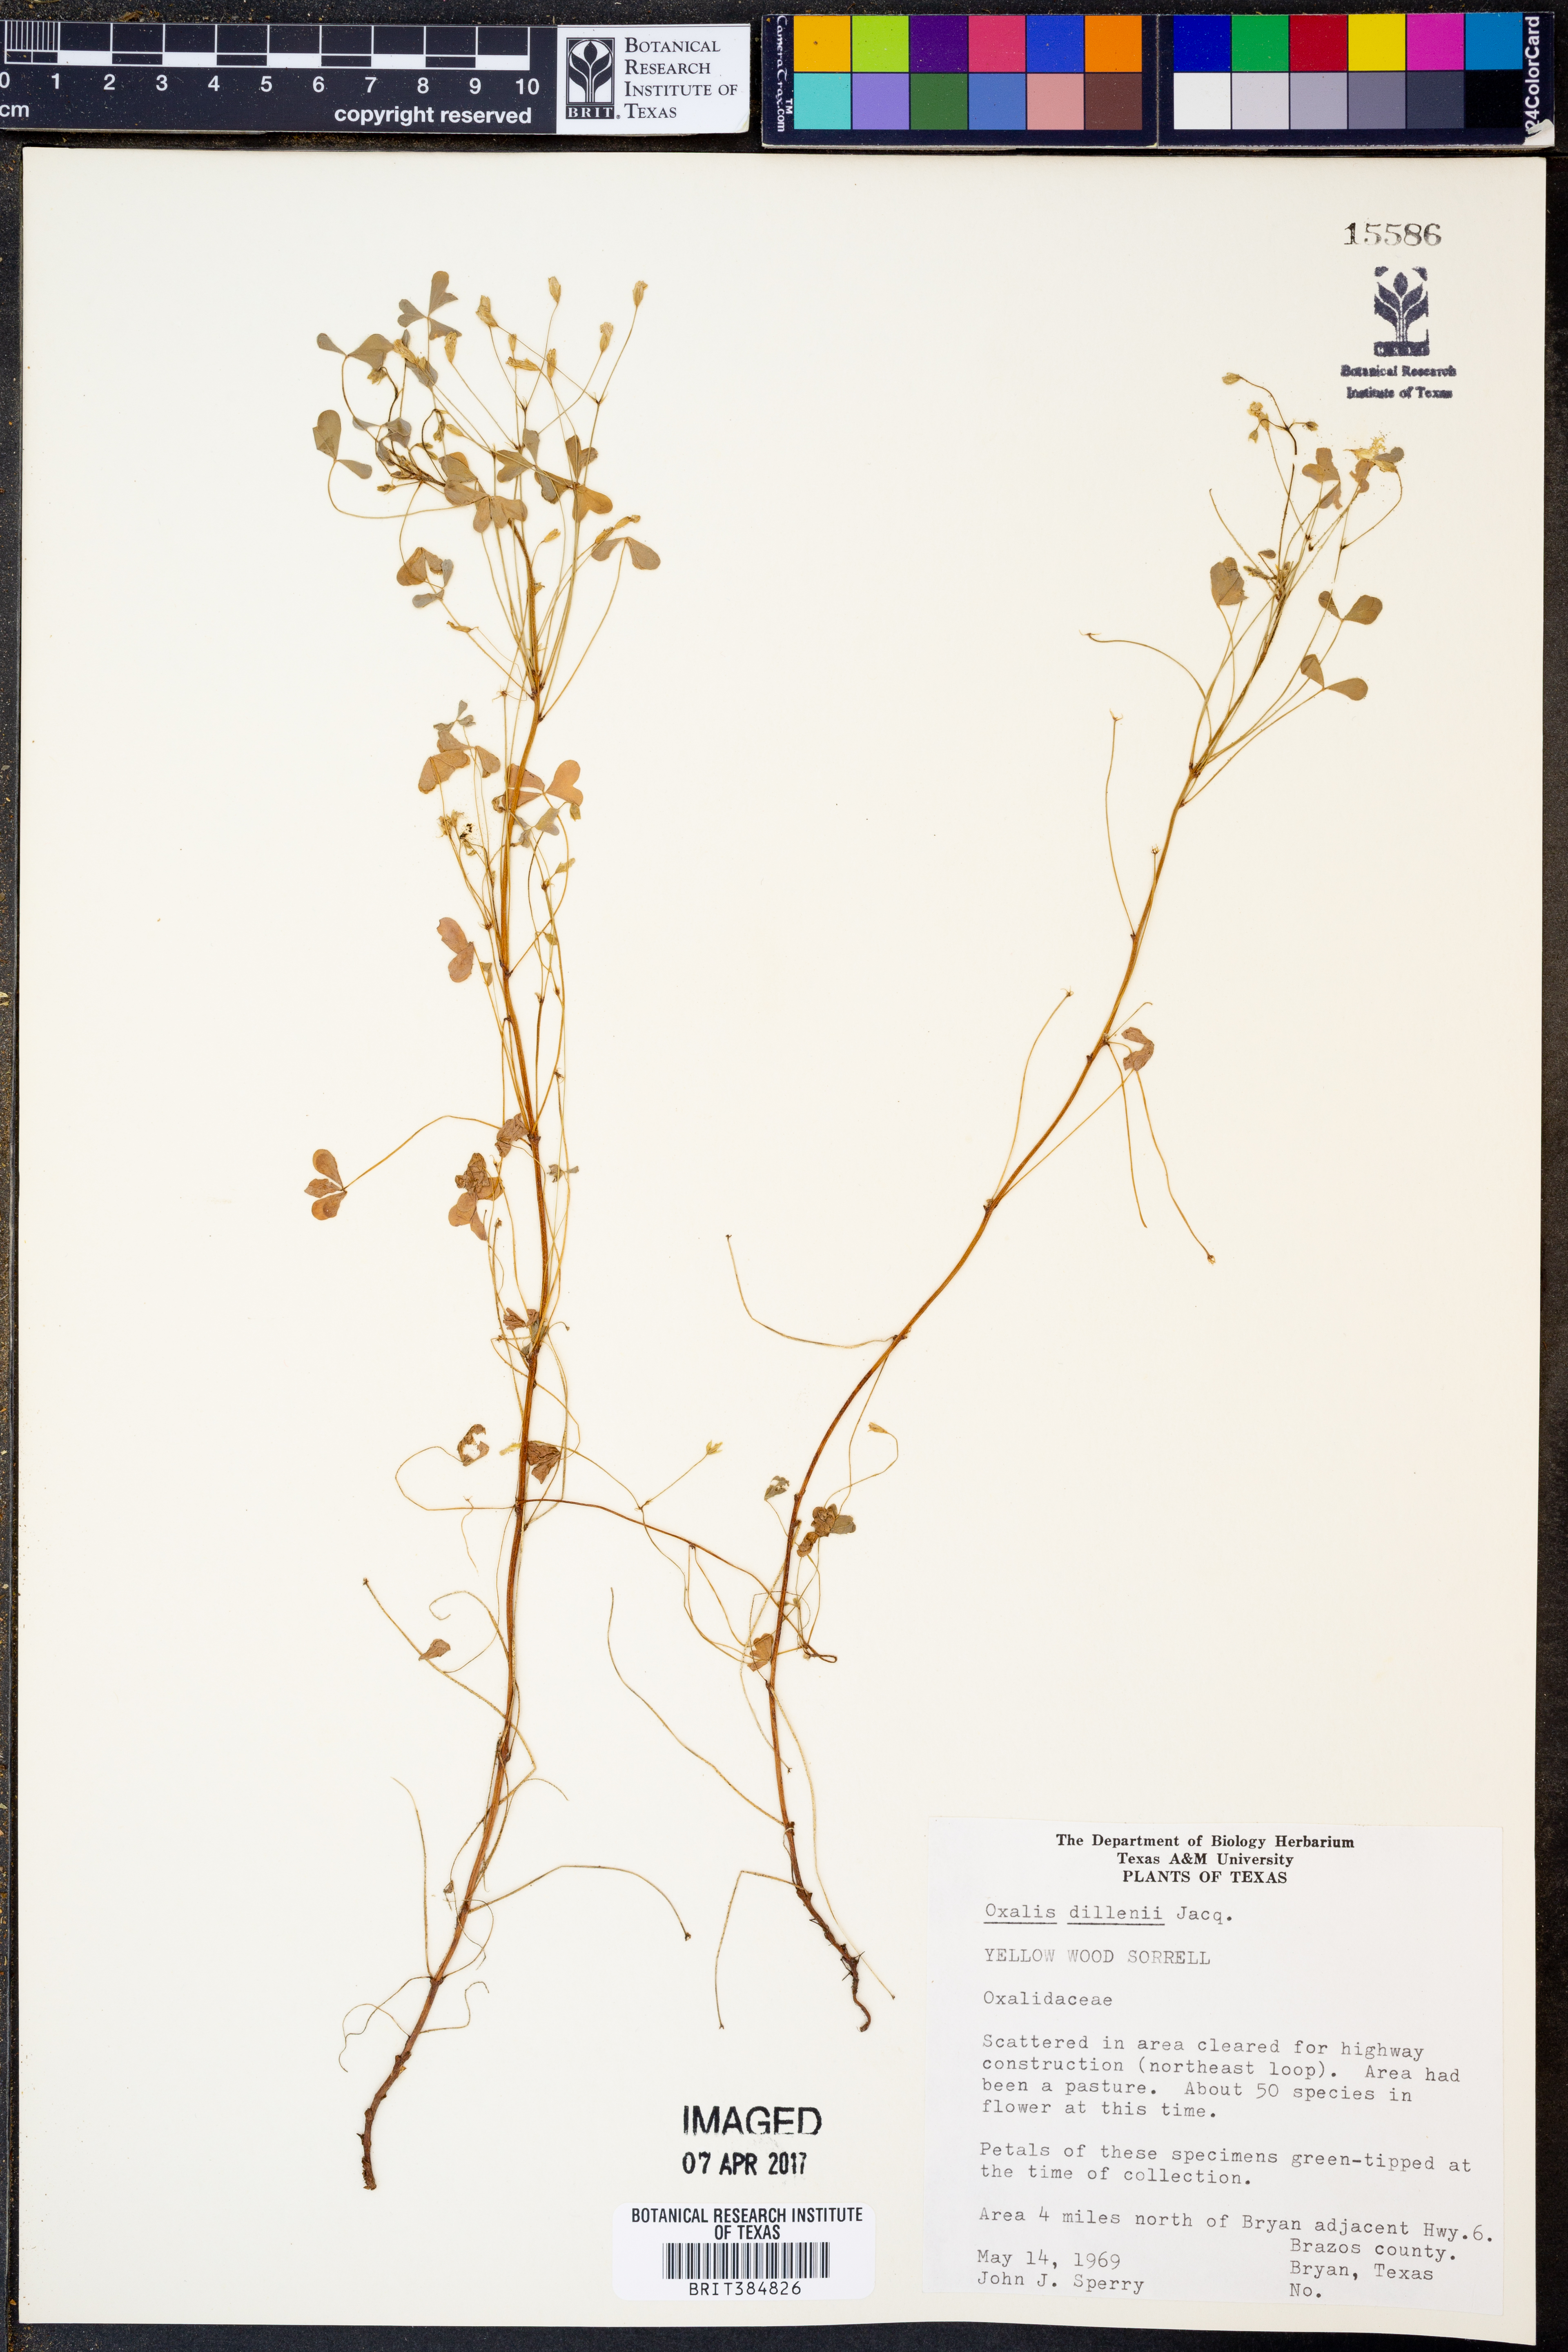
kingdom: Plantae
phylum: Tracheophyta
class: Magnoliopsida
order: Oxalidales
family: Oxalidaceae
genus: Oxalis
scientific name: Oxalis dillenii
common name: Sussex yellow-sorrel
